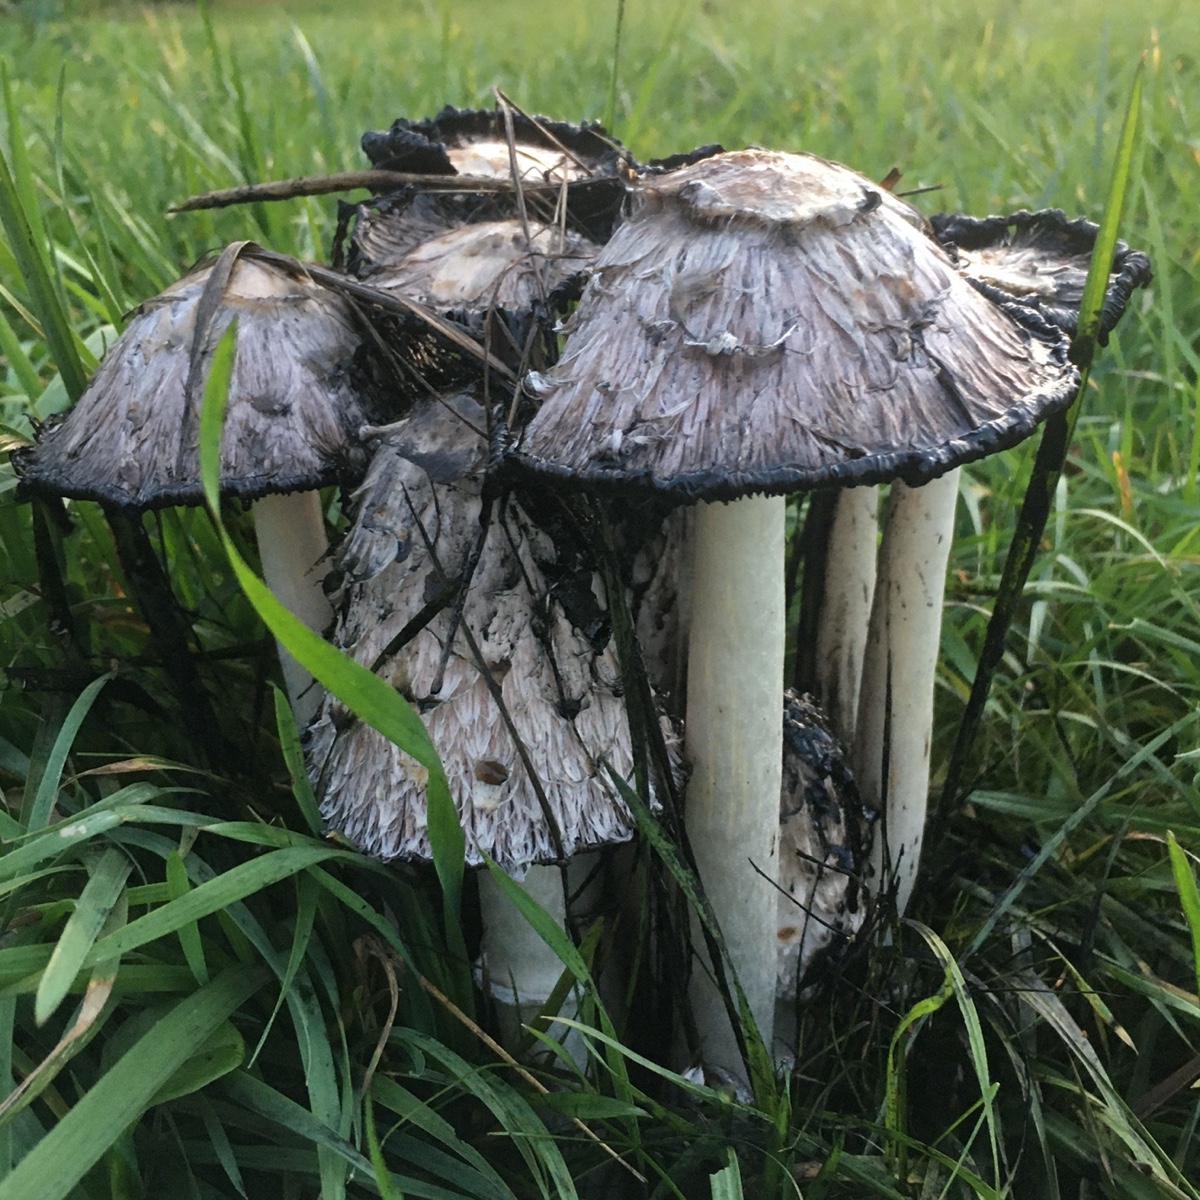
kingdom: Fungi
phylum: Basidiomycota
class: Agaricomycetes
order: Agaricales
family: Agaricaceae
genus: Coprinus
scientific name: Coprinus comatus
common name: stor parykhat
